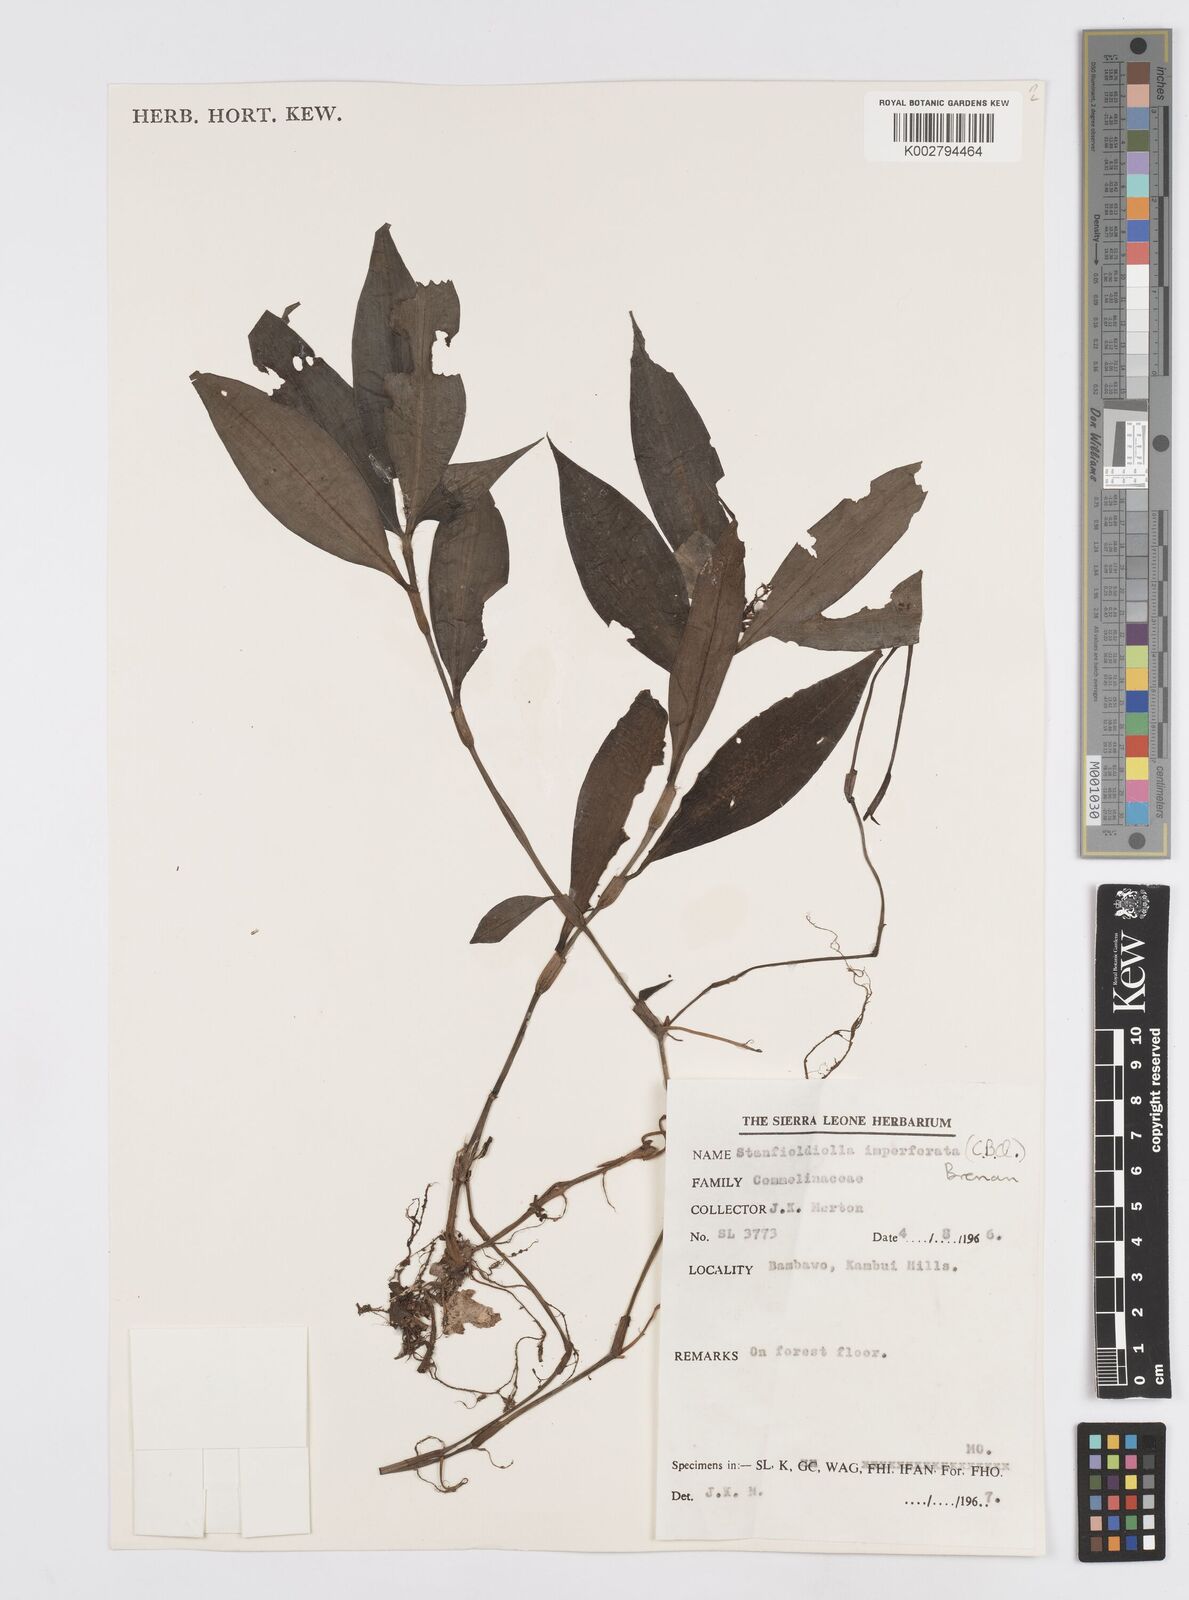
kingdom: Plantae
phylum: Tracheophyta
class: Liliopsida
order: Commelinales
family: Commelinaceae
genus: Stanfieldiella
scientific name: Stanfieldiella imperforata
